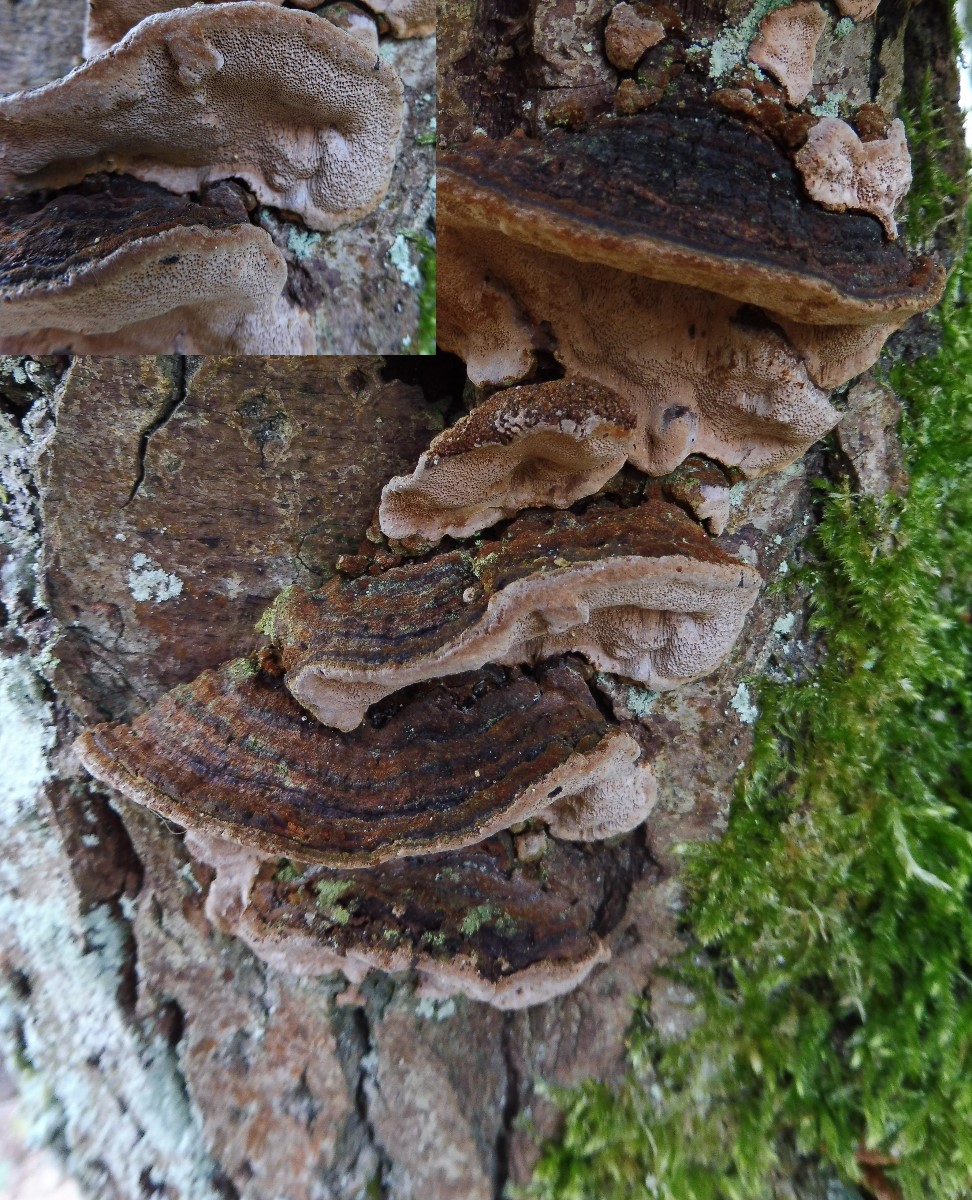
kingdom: Fungi
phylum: Basidiomycota
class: Agaricomycetes
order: Hymenochaetales
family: Hymenochaetaceae
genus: Phellinopsis
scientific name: Phellinopsis conchata
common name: pile-ildporesvamp
